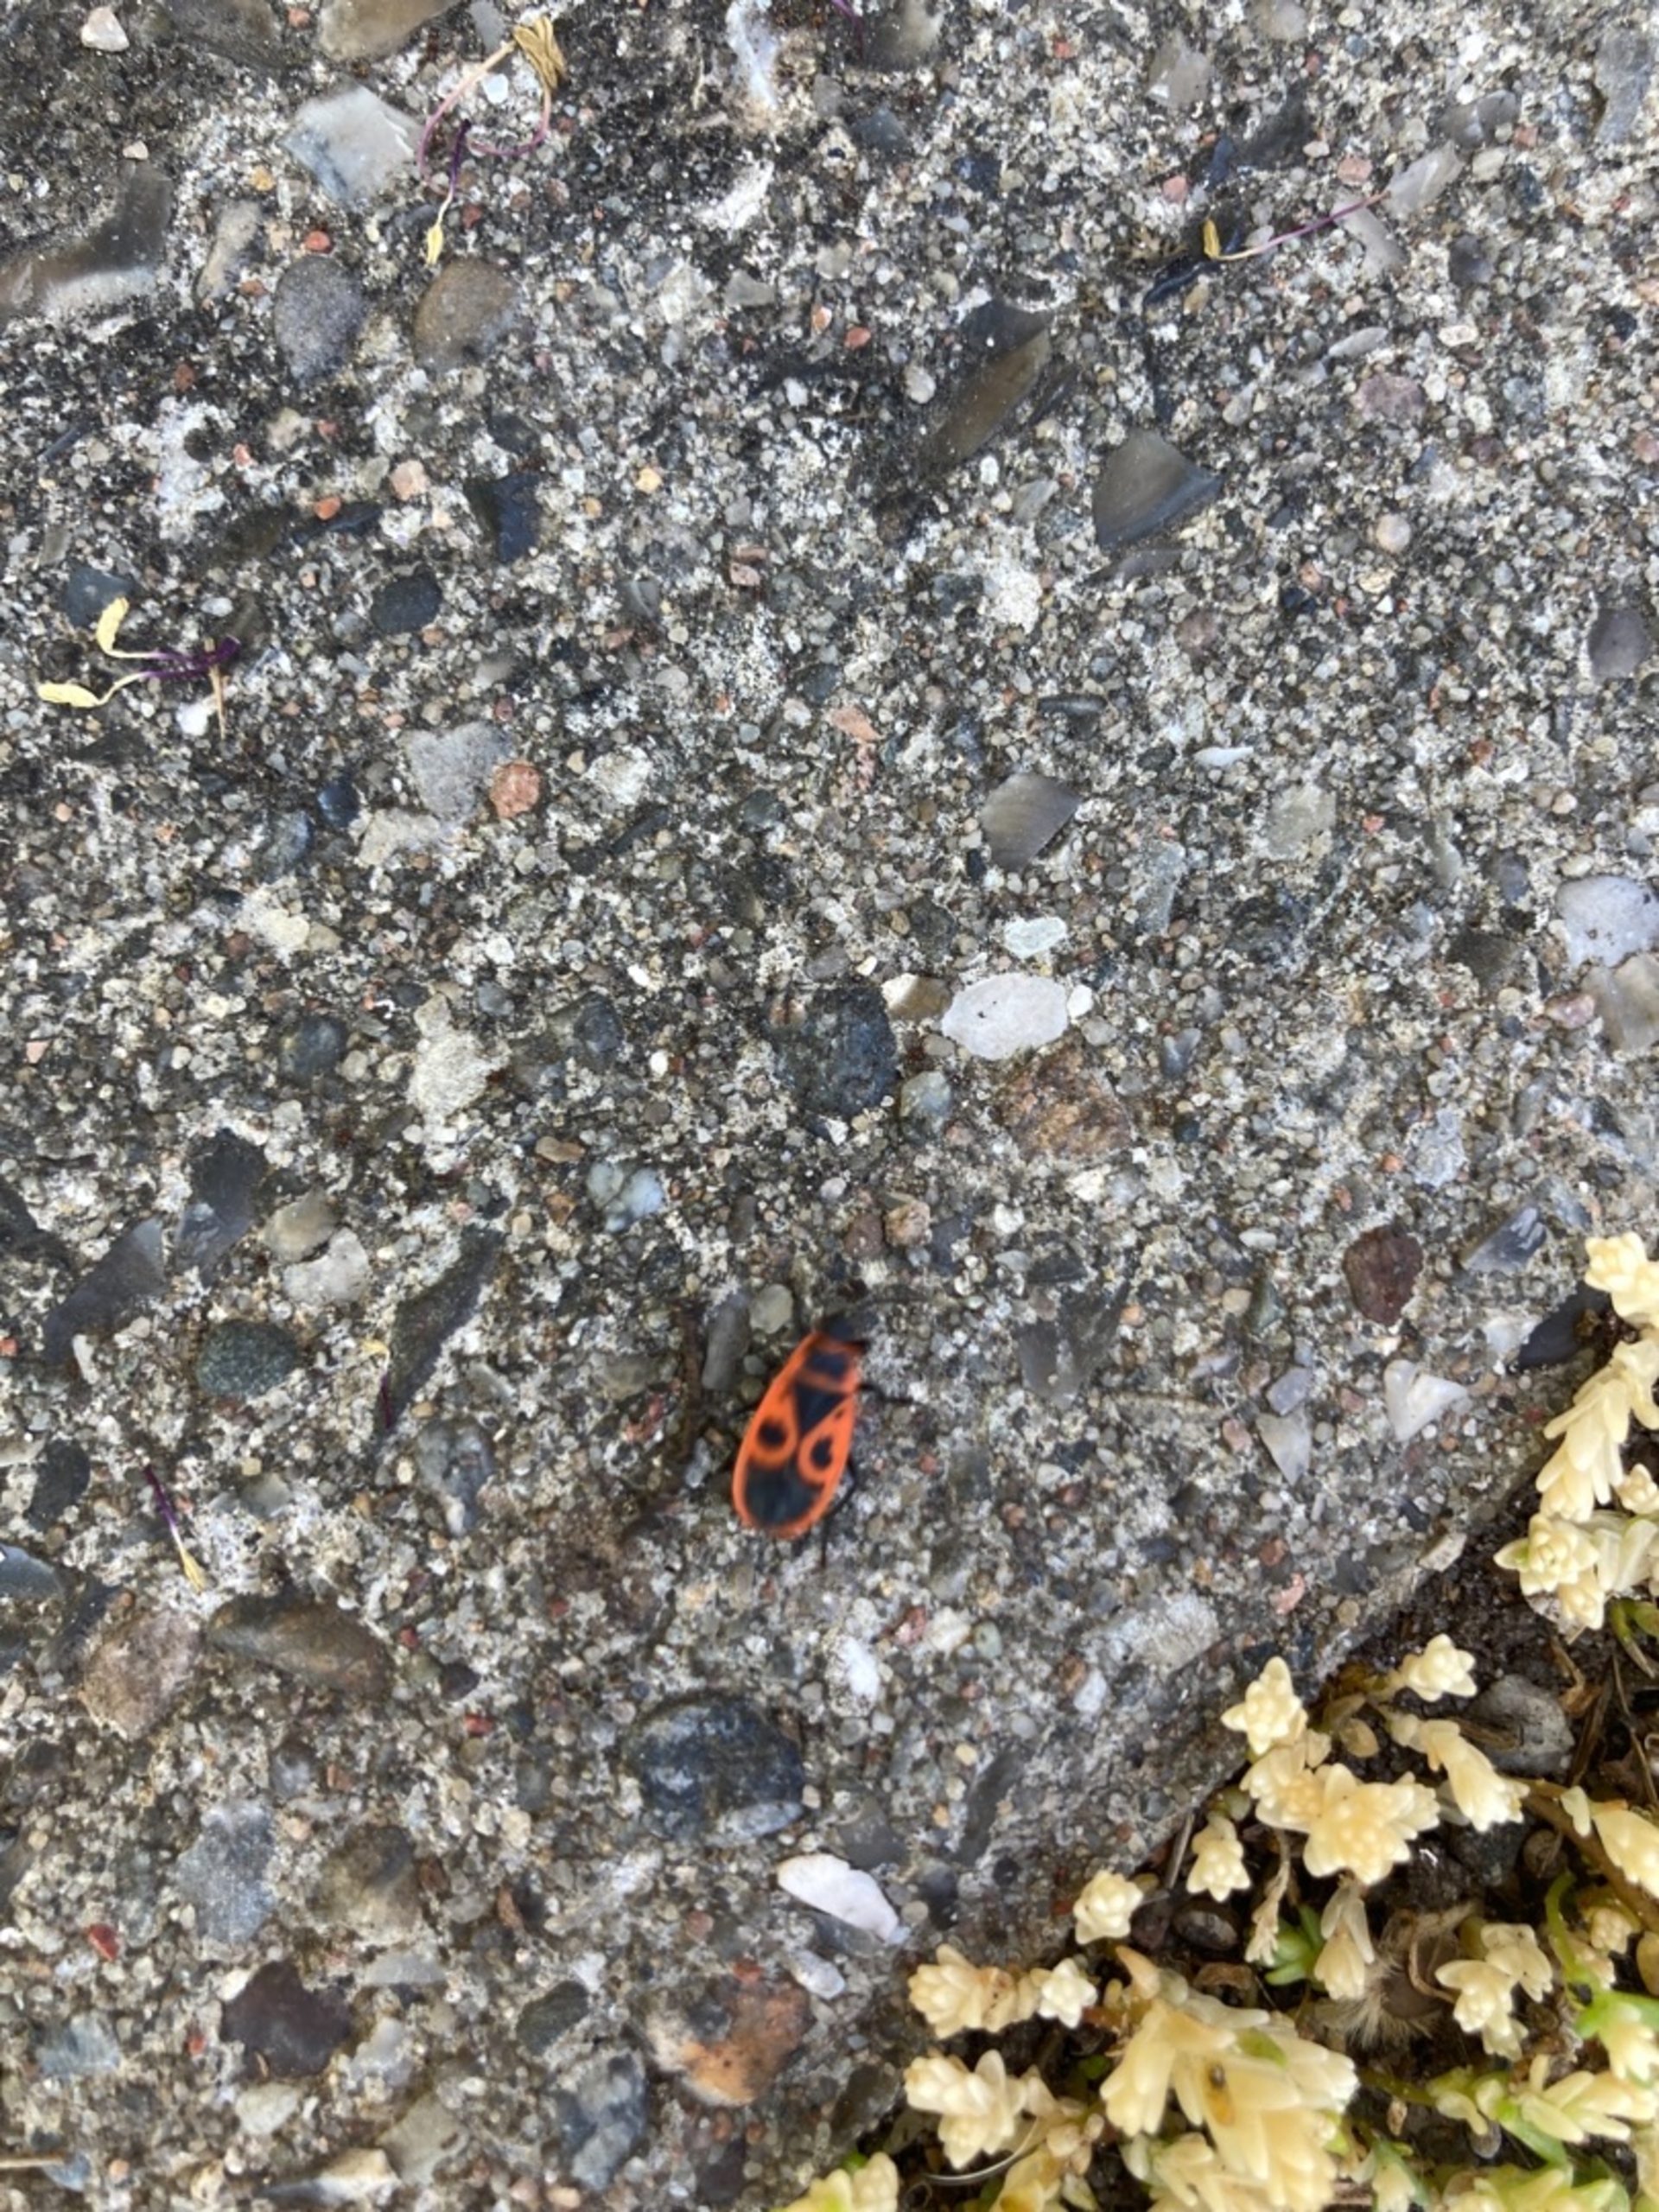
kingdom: Animalia
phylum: Arthropoda
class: Insecta
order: Hemiptera
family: Pyrrhocoridae
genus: Pyrrhocoris
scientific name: Pyrrhocoris apterus
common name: Ildtæge
